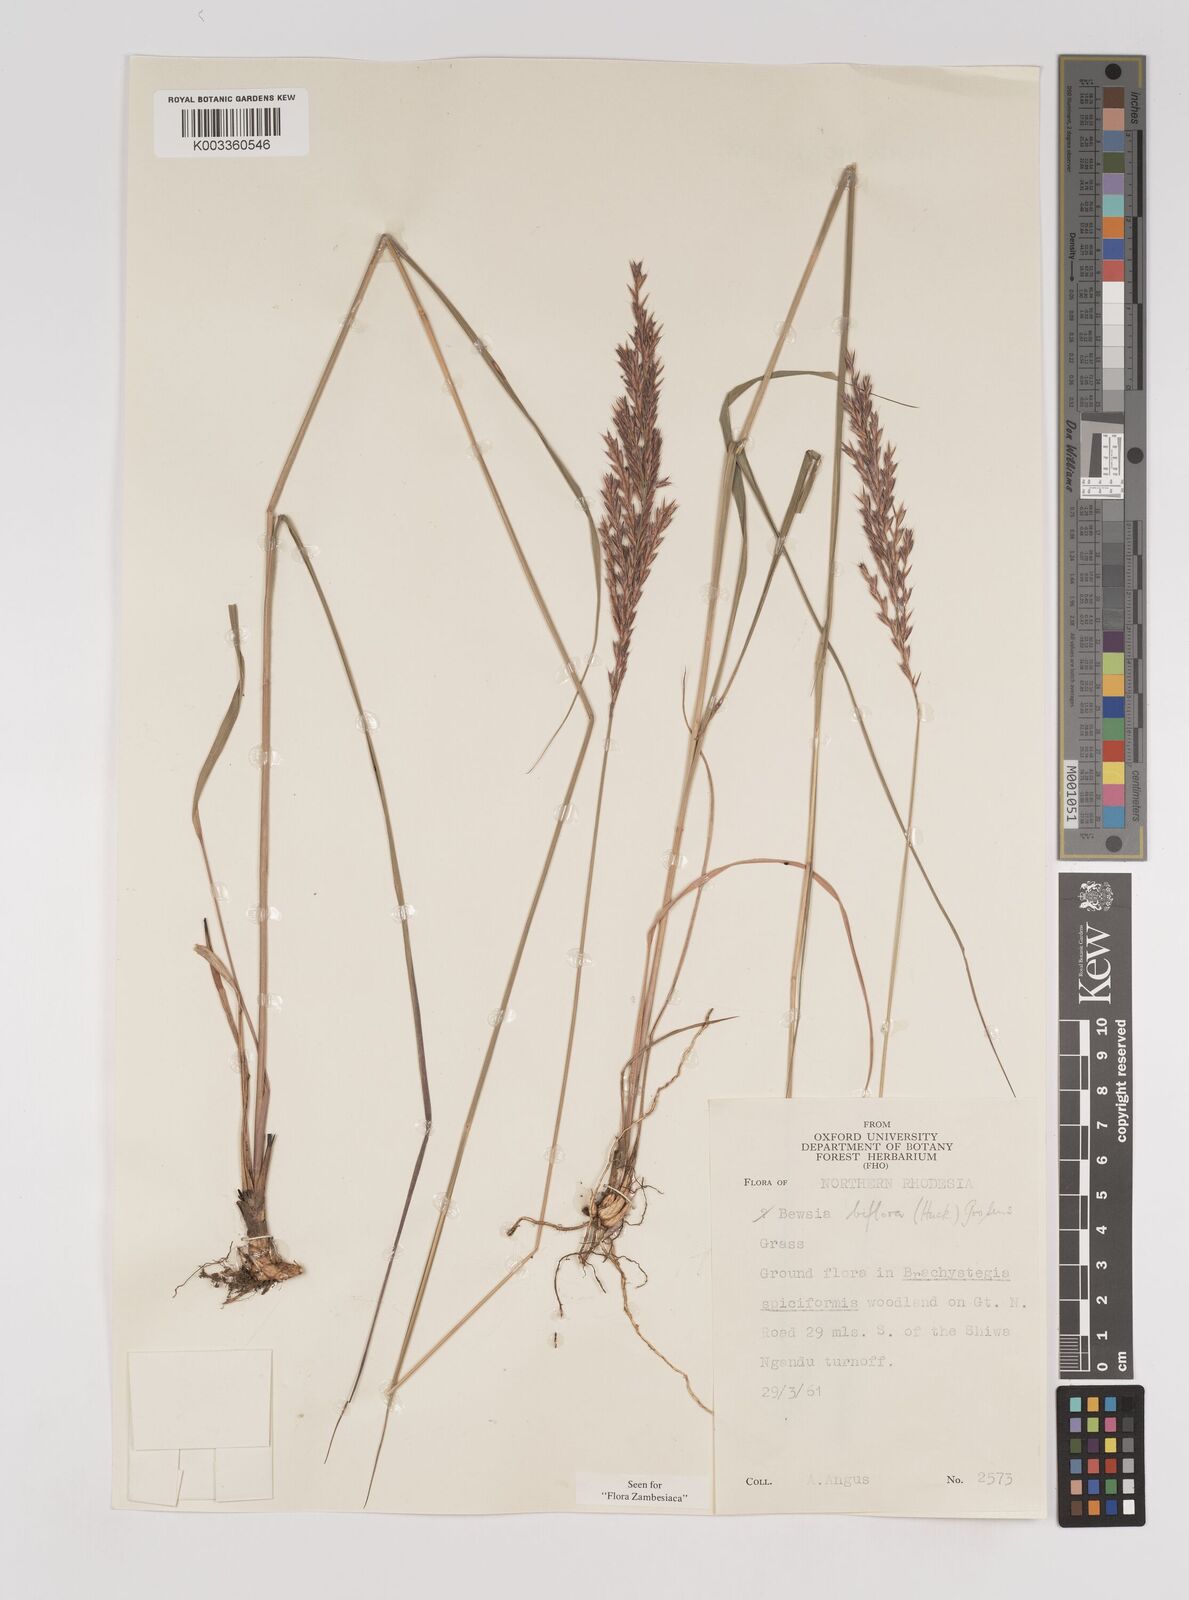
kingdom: Plantae
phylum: Tracheophyta
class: Liliopsida
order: Poales
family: Poaceae
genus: Bewsia
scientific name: Bewsia biflora
